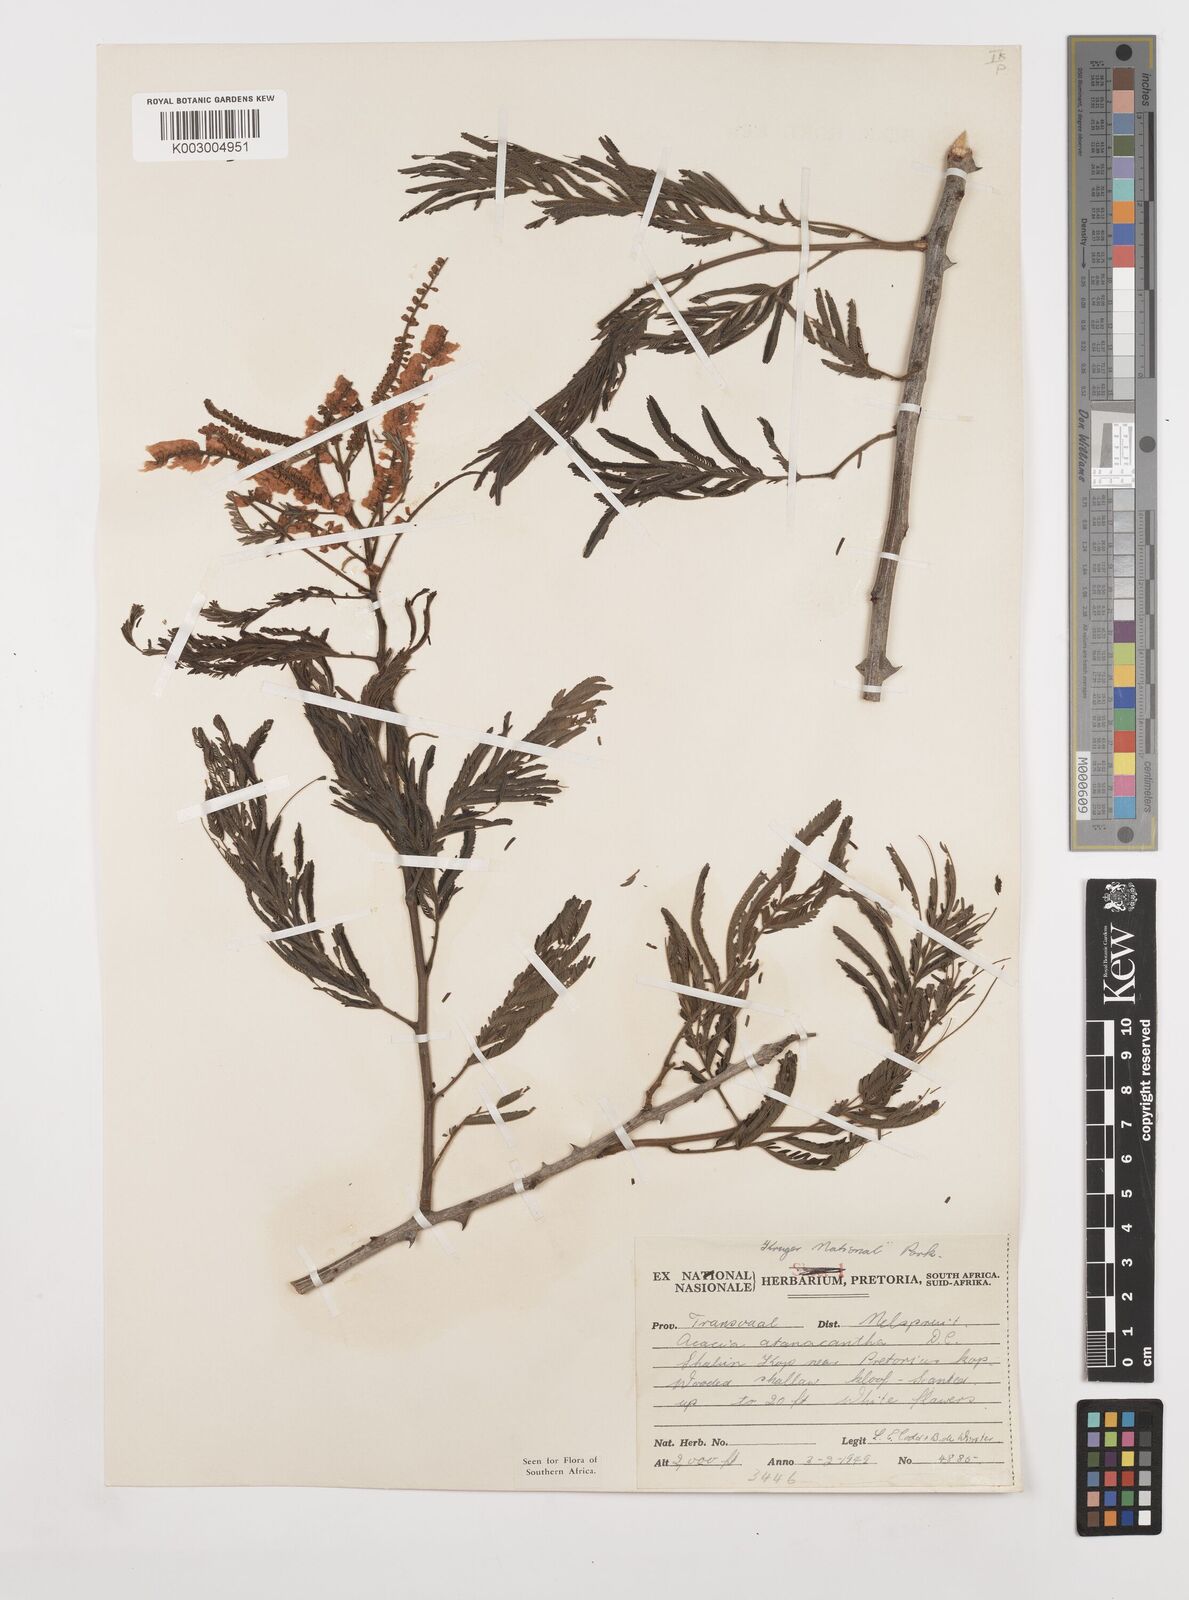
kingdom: Plantae
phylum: Tracheophyta
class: Magnoliopsida
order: Fabales
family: Fabaceae
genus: Senegalia
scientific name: Senegalia ataxacantha
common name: Flame acacia
